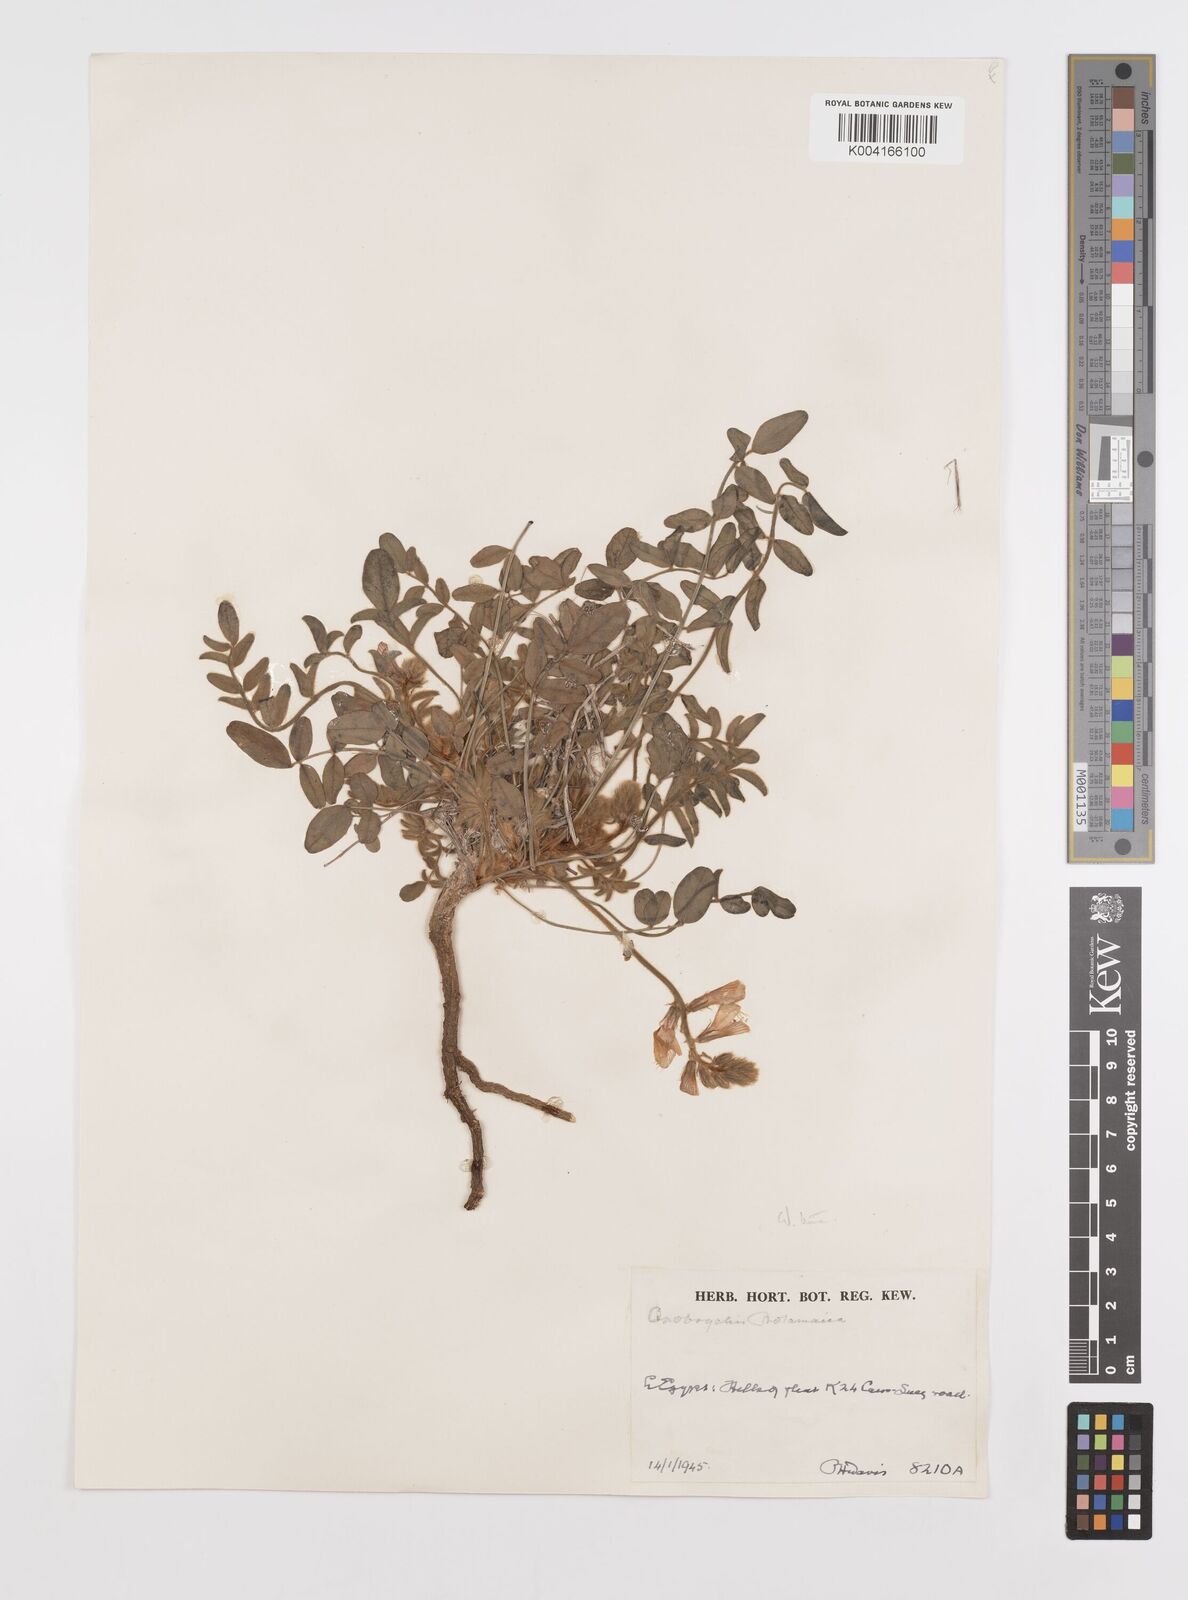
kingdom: Plantae
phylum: Tracheophyta
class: Magnoliopsida
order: Fabales
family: Fabaceae
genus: Onobrychis
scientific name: Onobrychis ptolemaica
